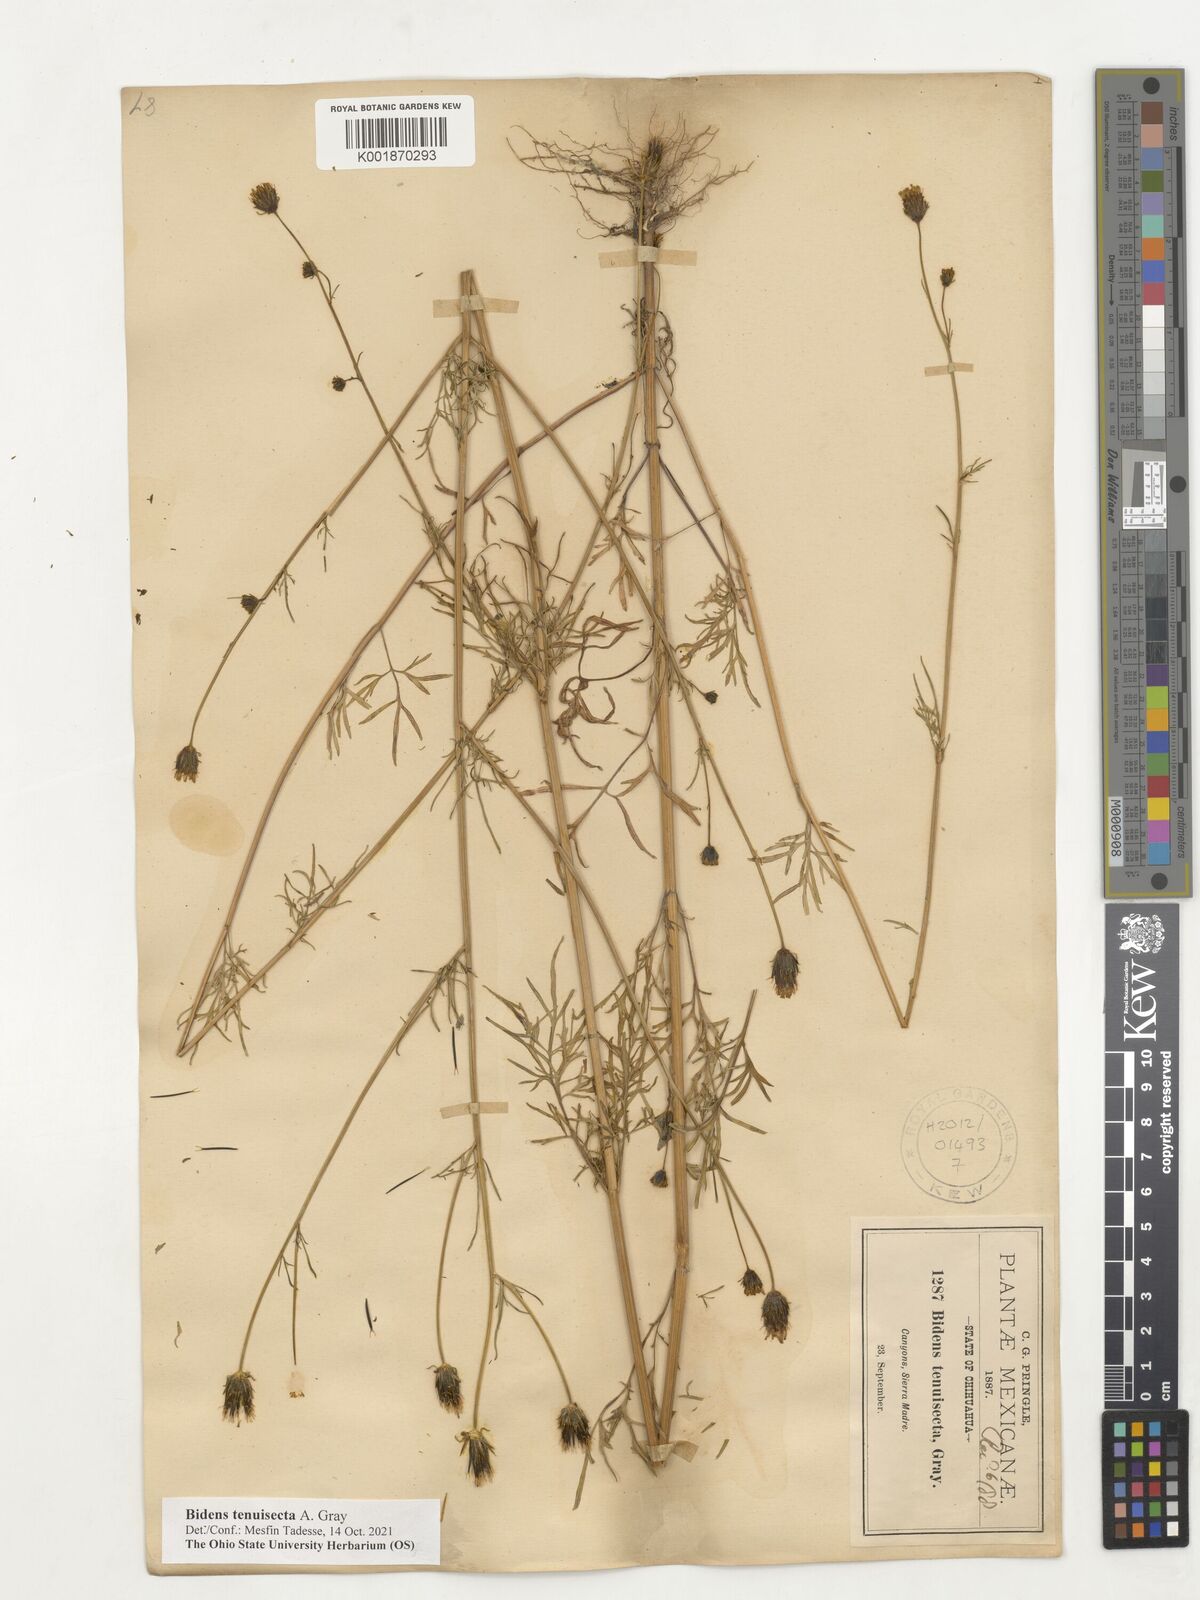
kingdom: Plantae
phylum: Tracheophyta
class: Magnoliopsida
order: Asterales
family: Asteraceae
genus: Bidens
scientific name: Bidens tenuisecta
